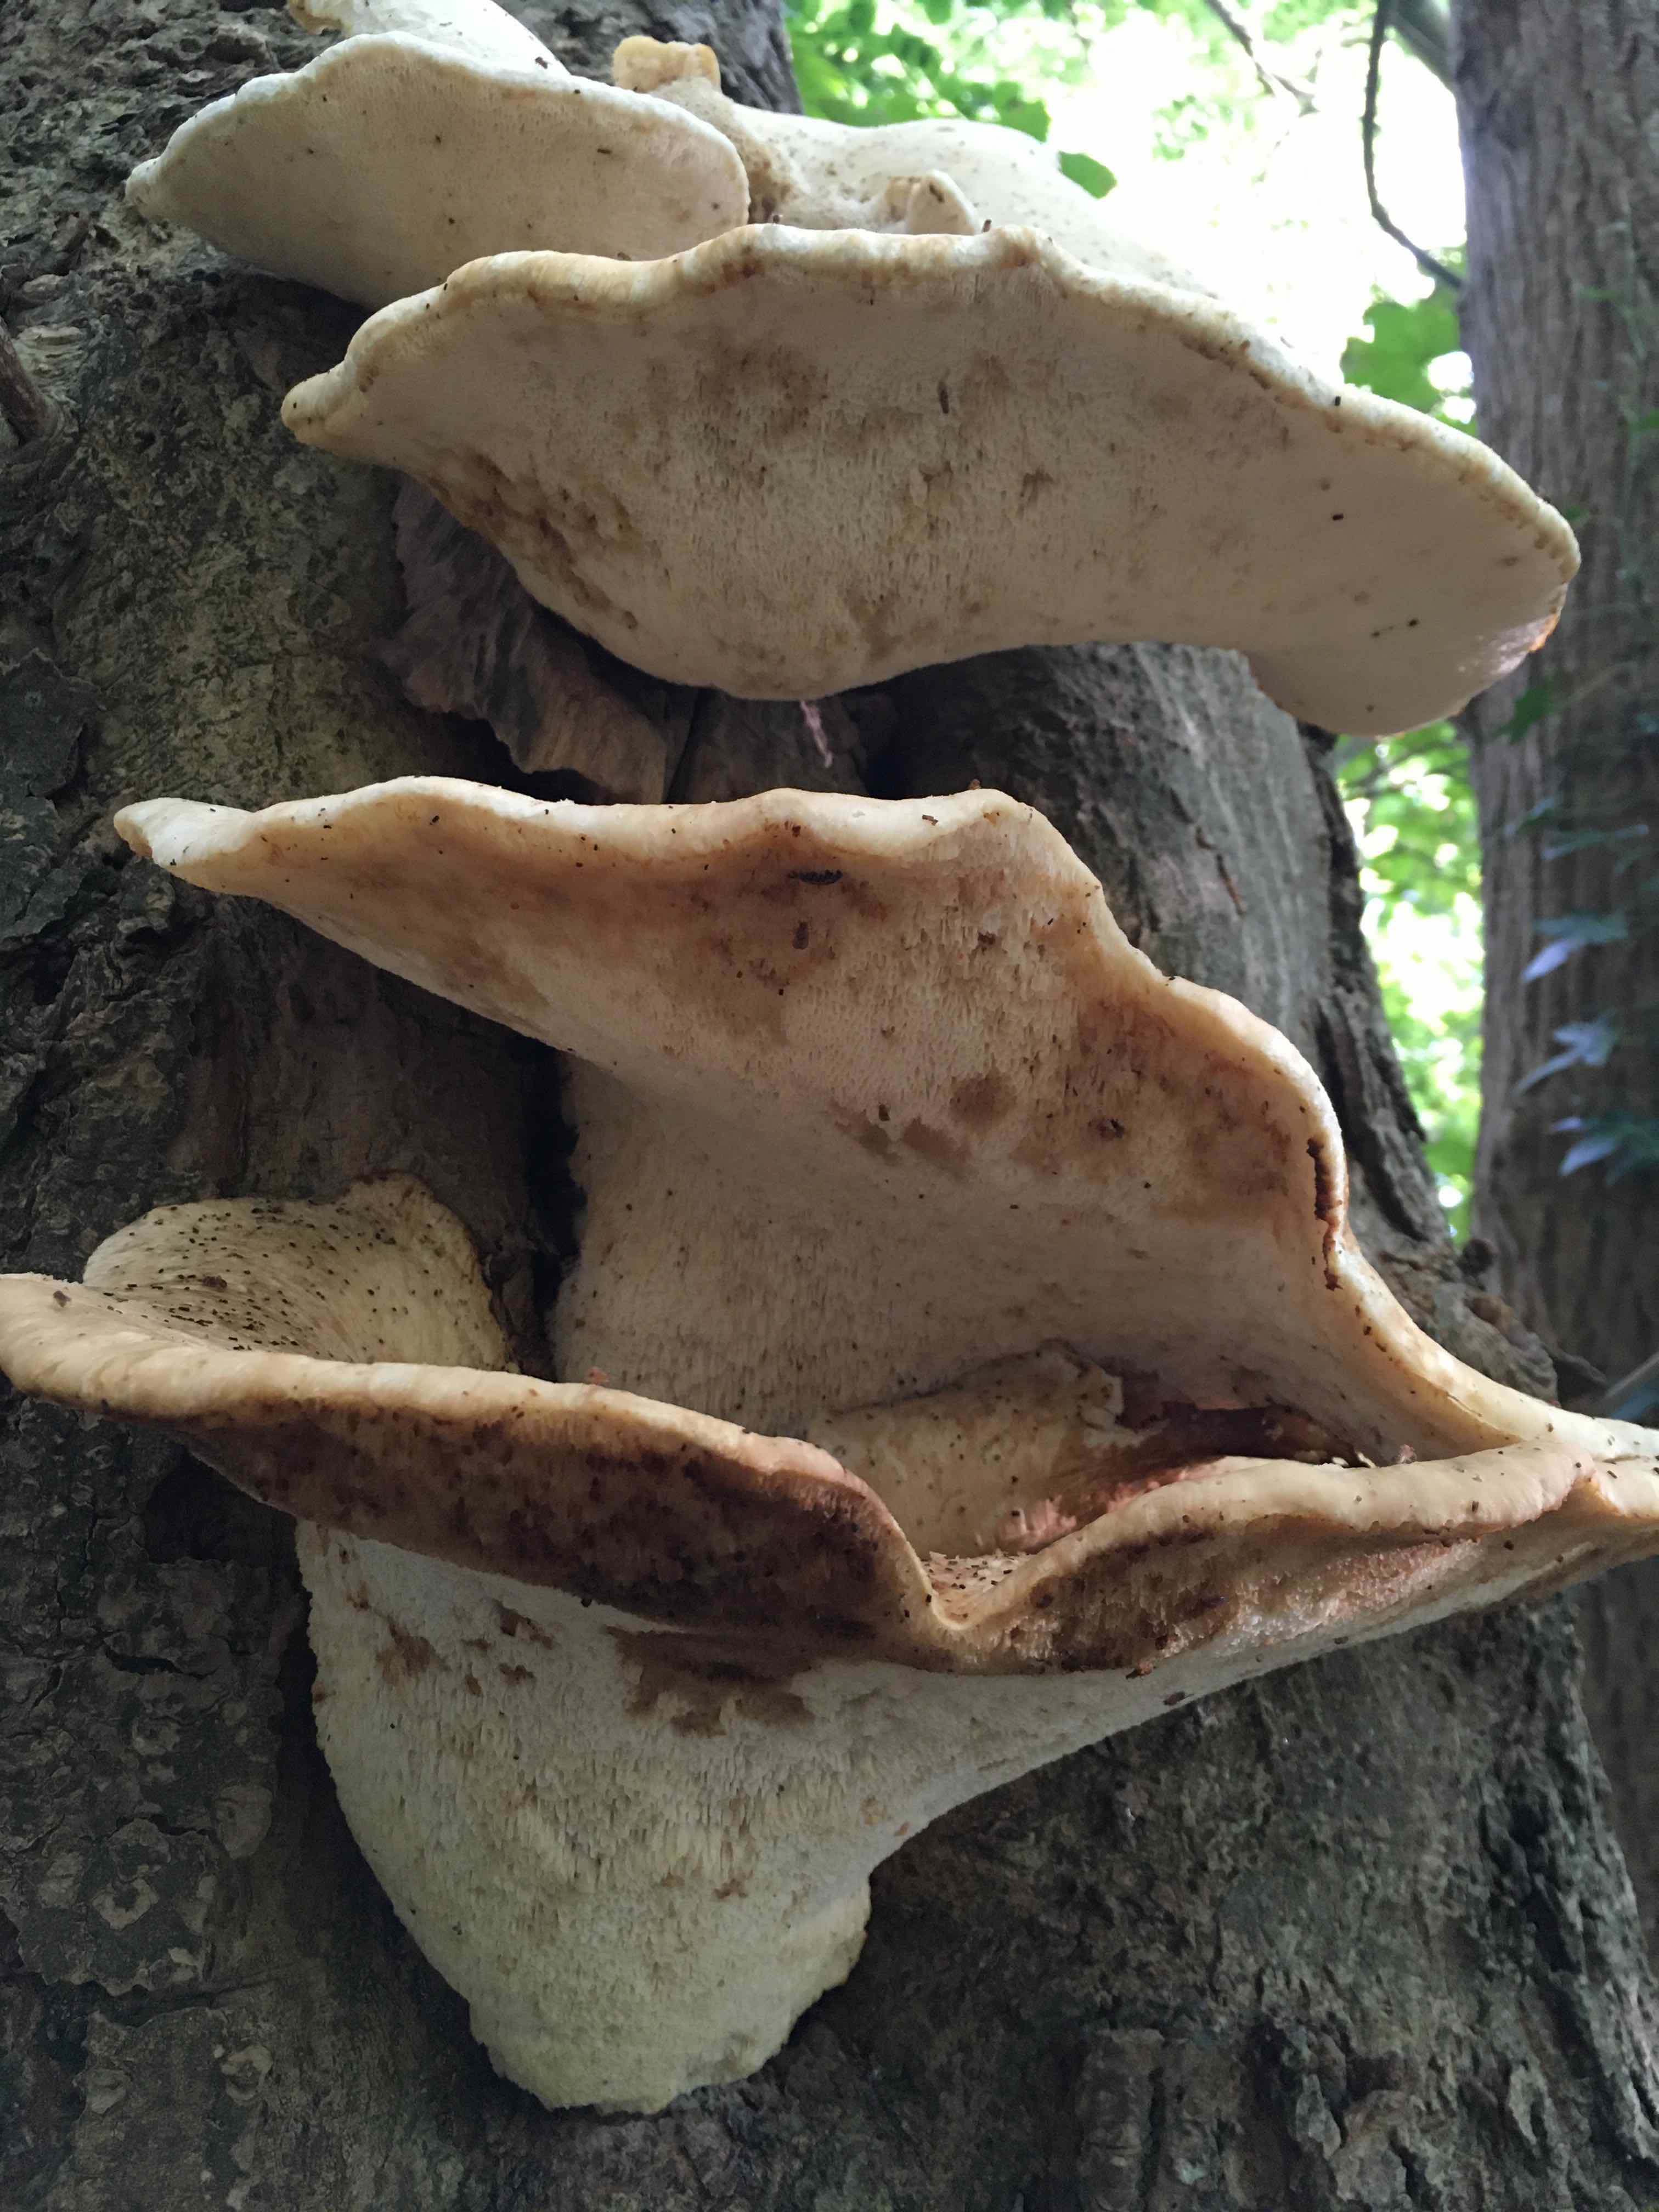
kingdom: Fungi
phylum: Basidiomycota
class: Agaricomycetes
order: Polyporales
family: Polyporaceae
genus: Cerioporus
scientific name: Cerioporus squamosus
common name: skællet stilkporesvamp
